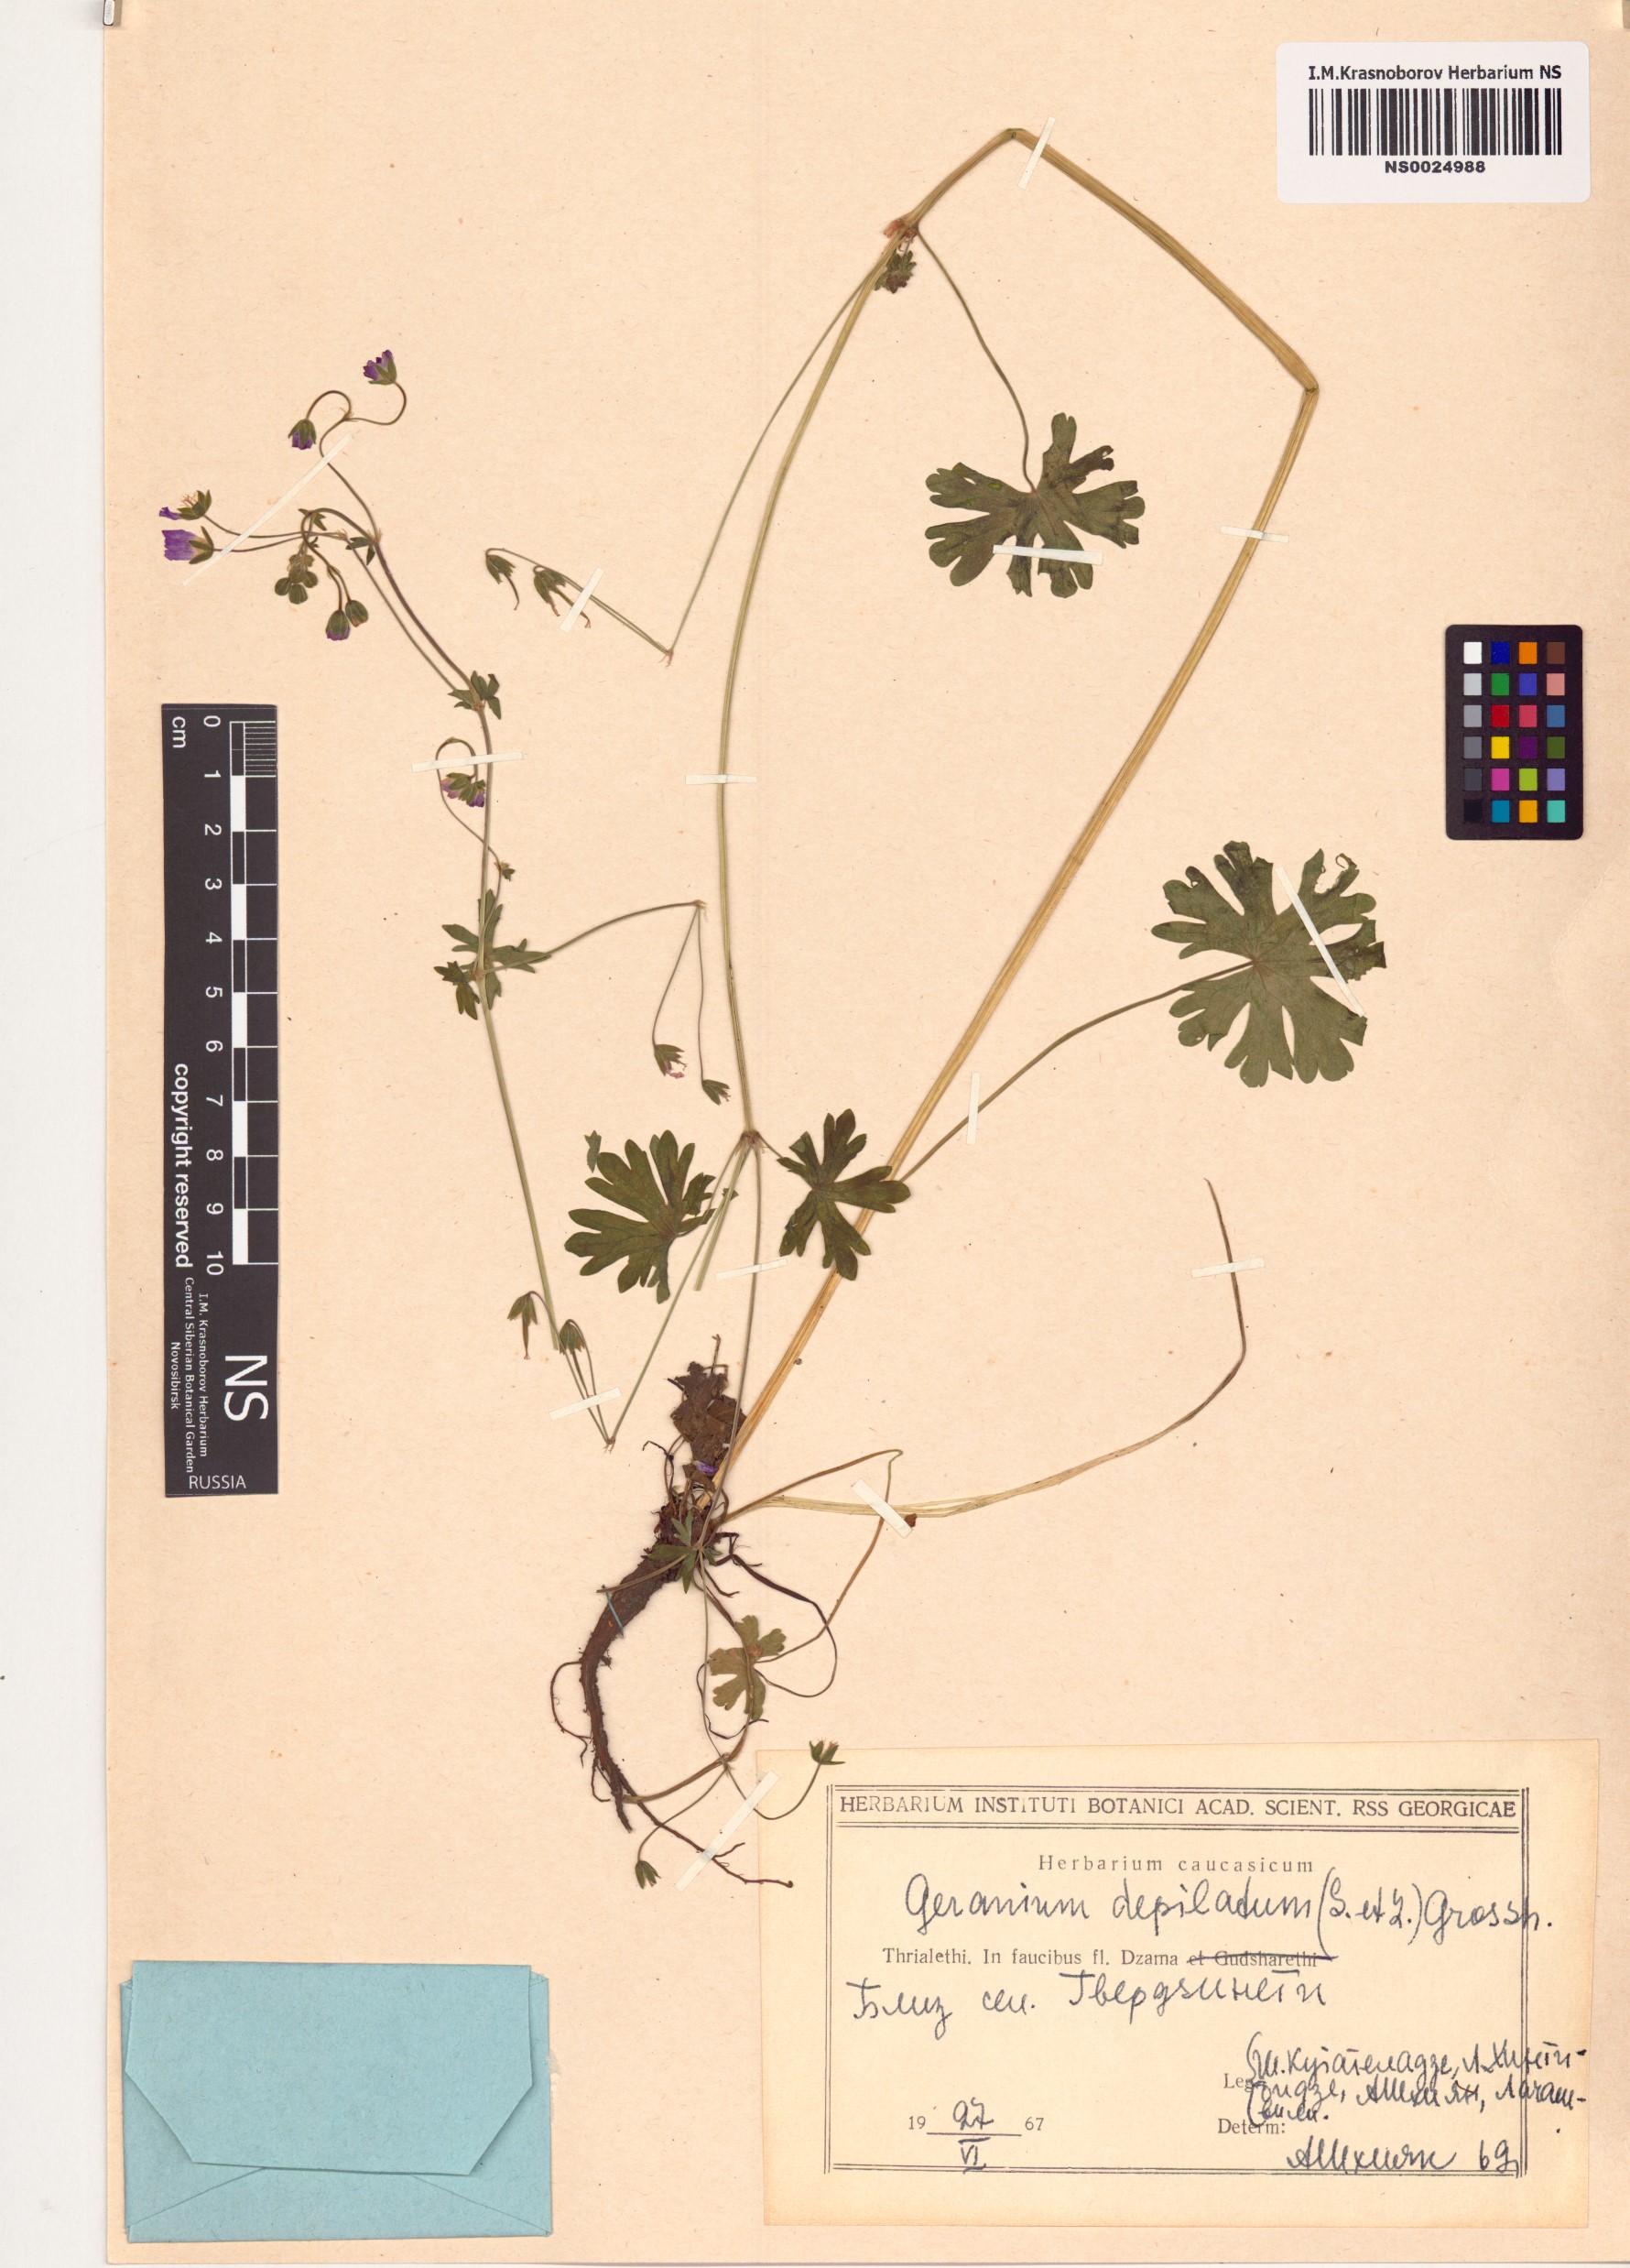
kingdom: Plantae
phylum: Tracheophyta
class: Magnoliopsida
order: Geraniales
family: Geraniaceae
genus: Geranium
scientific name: Geranium pyrenaicum
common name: Hedgerow crane's-bill
